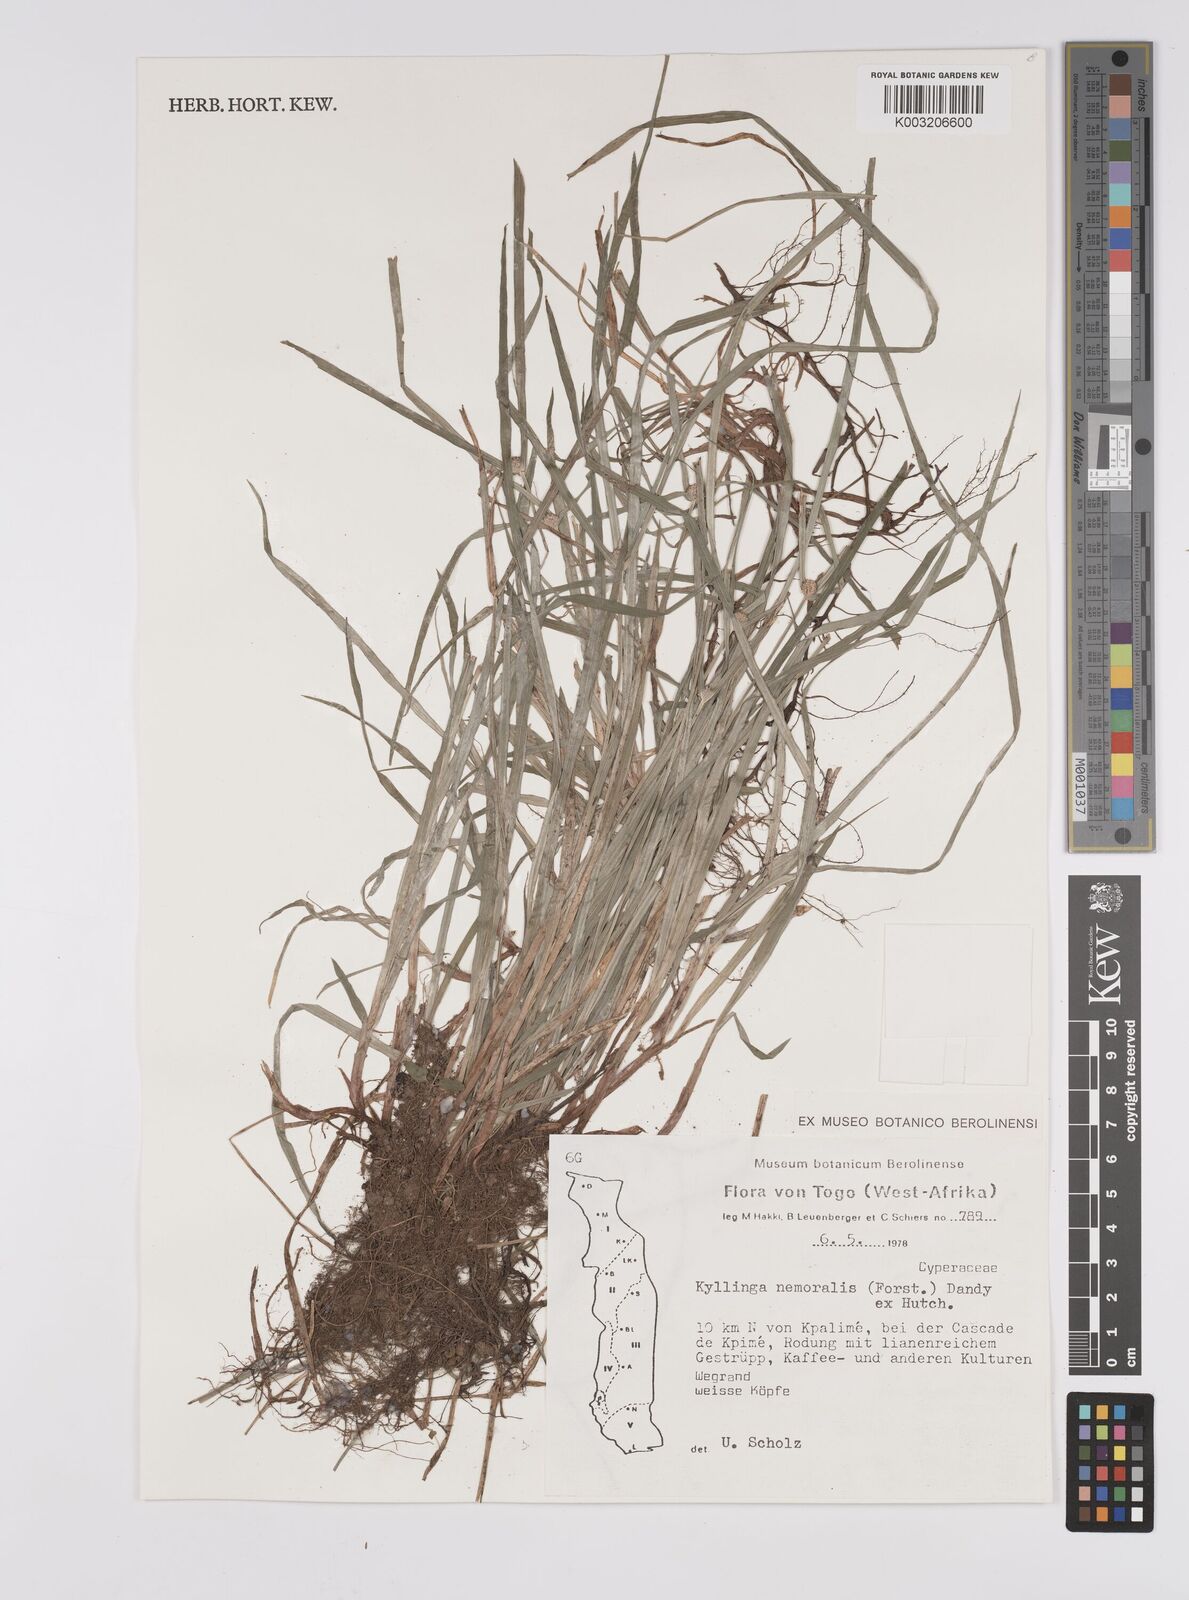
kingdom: Plantae
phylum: Tracheophyta
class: Liliopsida
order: Poales
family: Cyperaceae
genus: Cyperus
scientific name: Cyperus nemoralis
